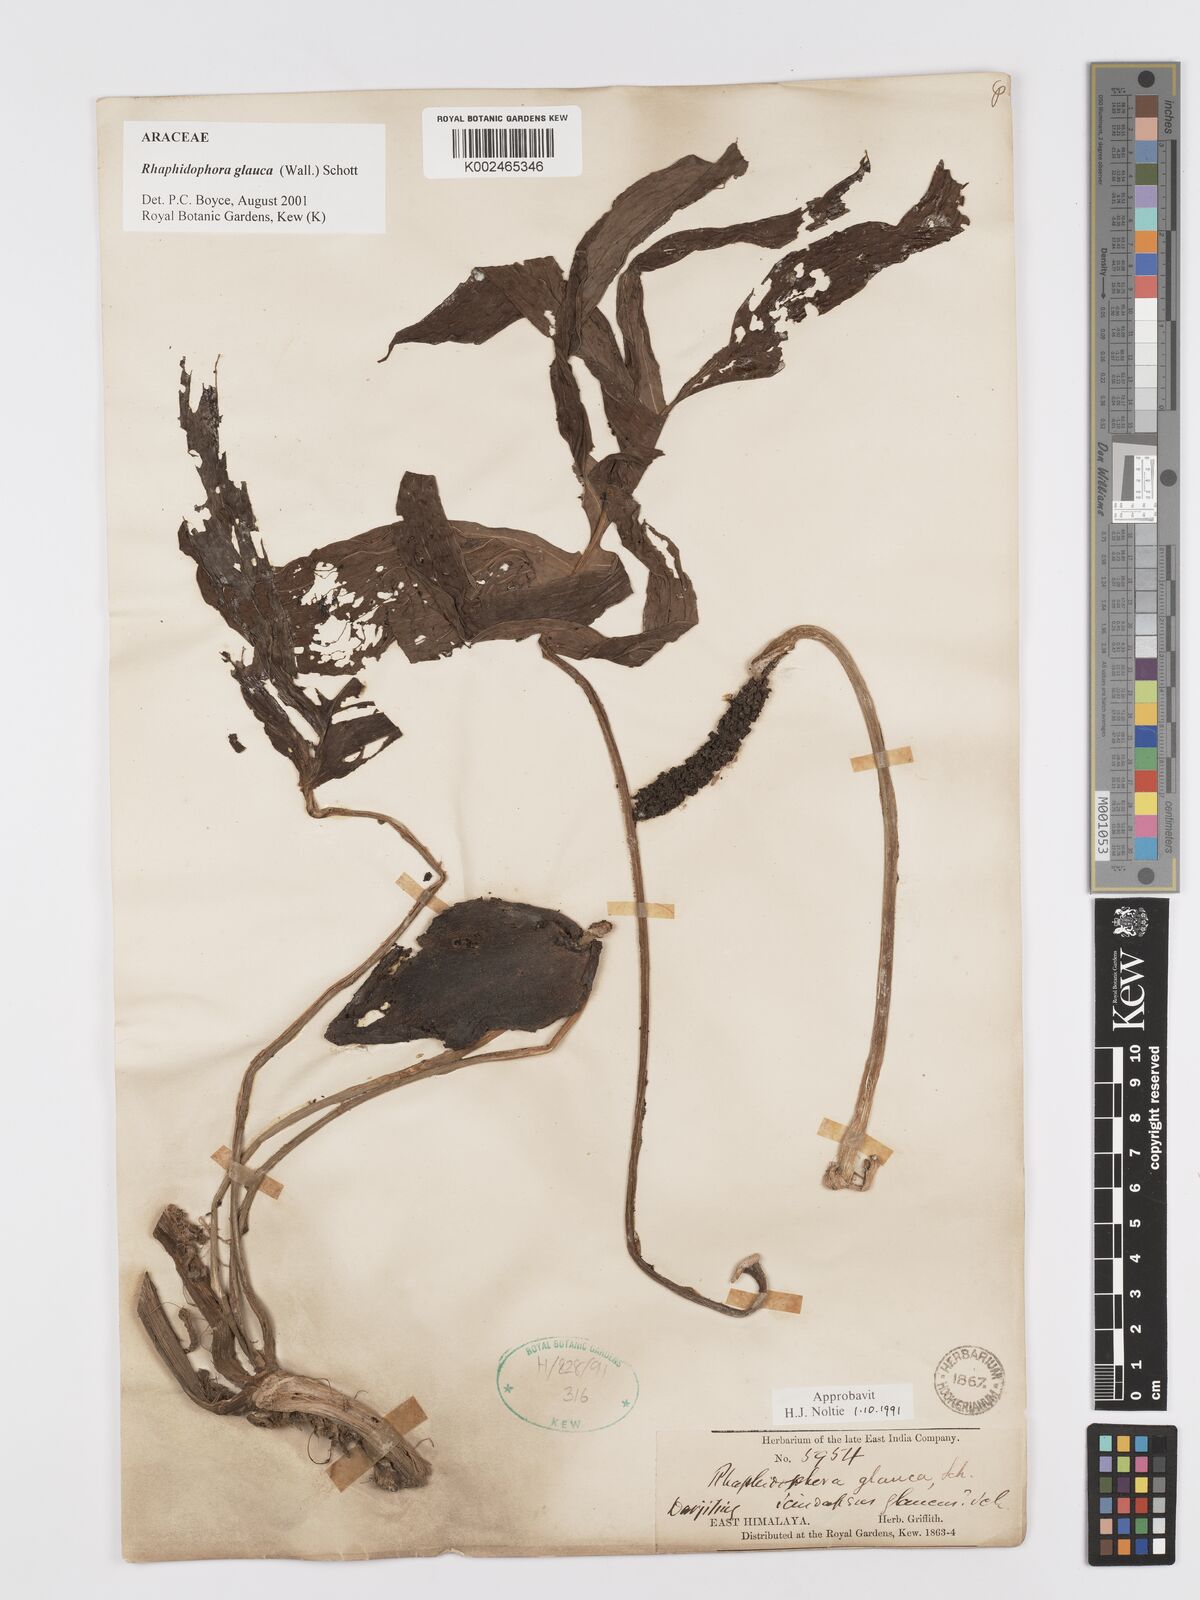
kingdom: Plantae
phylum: Tracheophyta
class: Liliopsida
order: Alismatales
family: Araceae
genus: Rhaphidophora
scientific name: Rhaphidophora glauca
